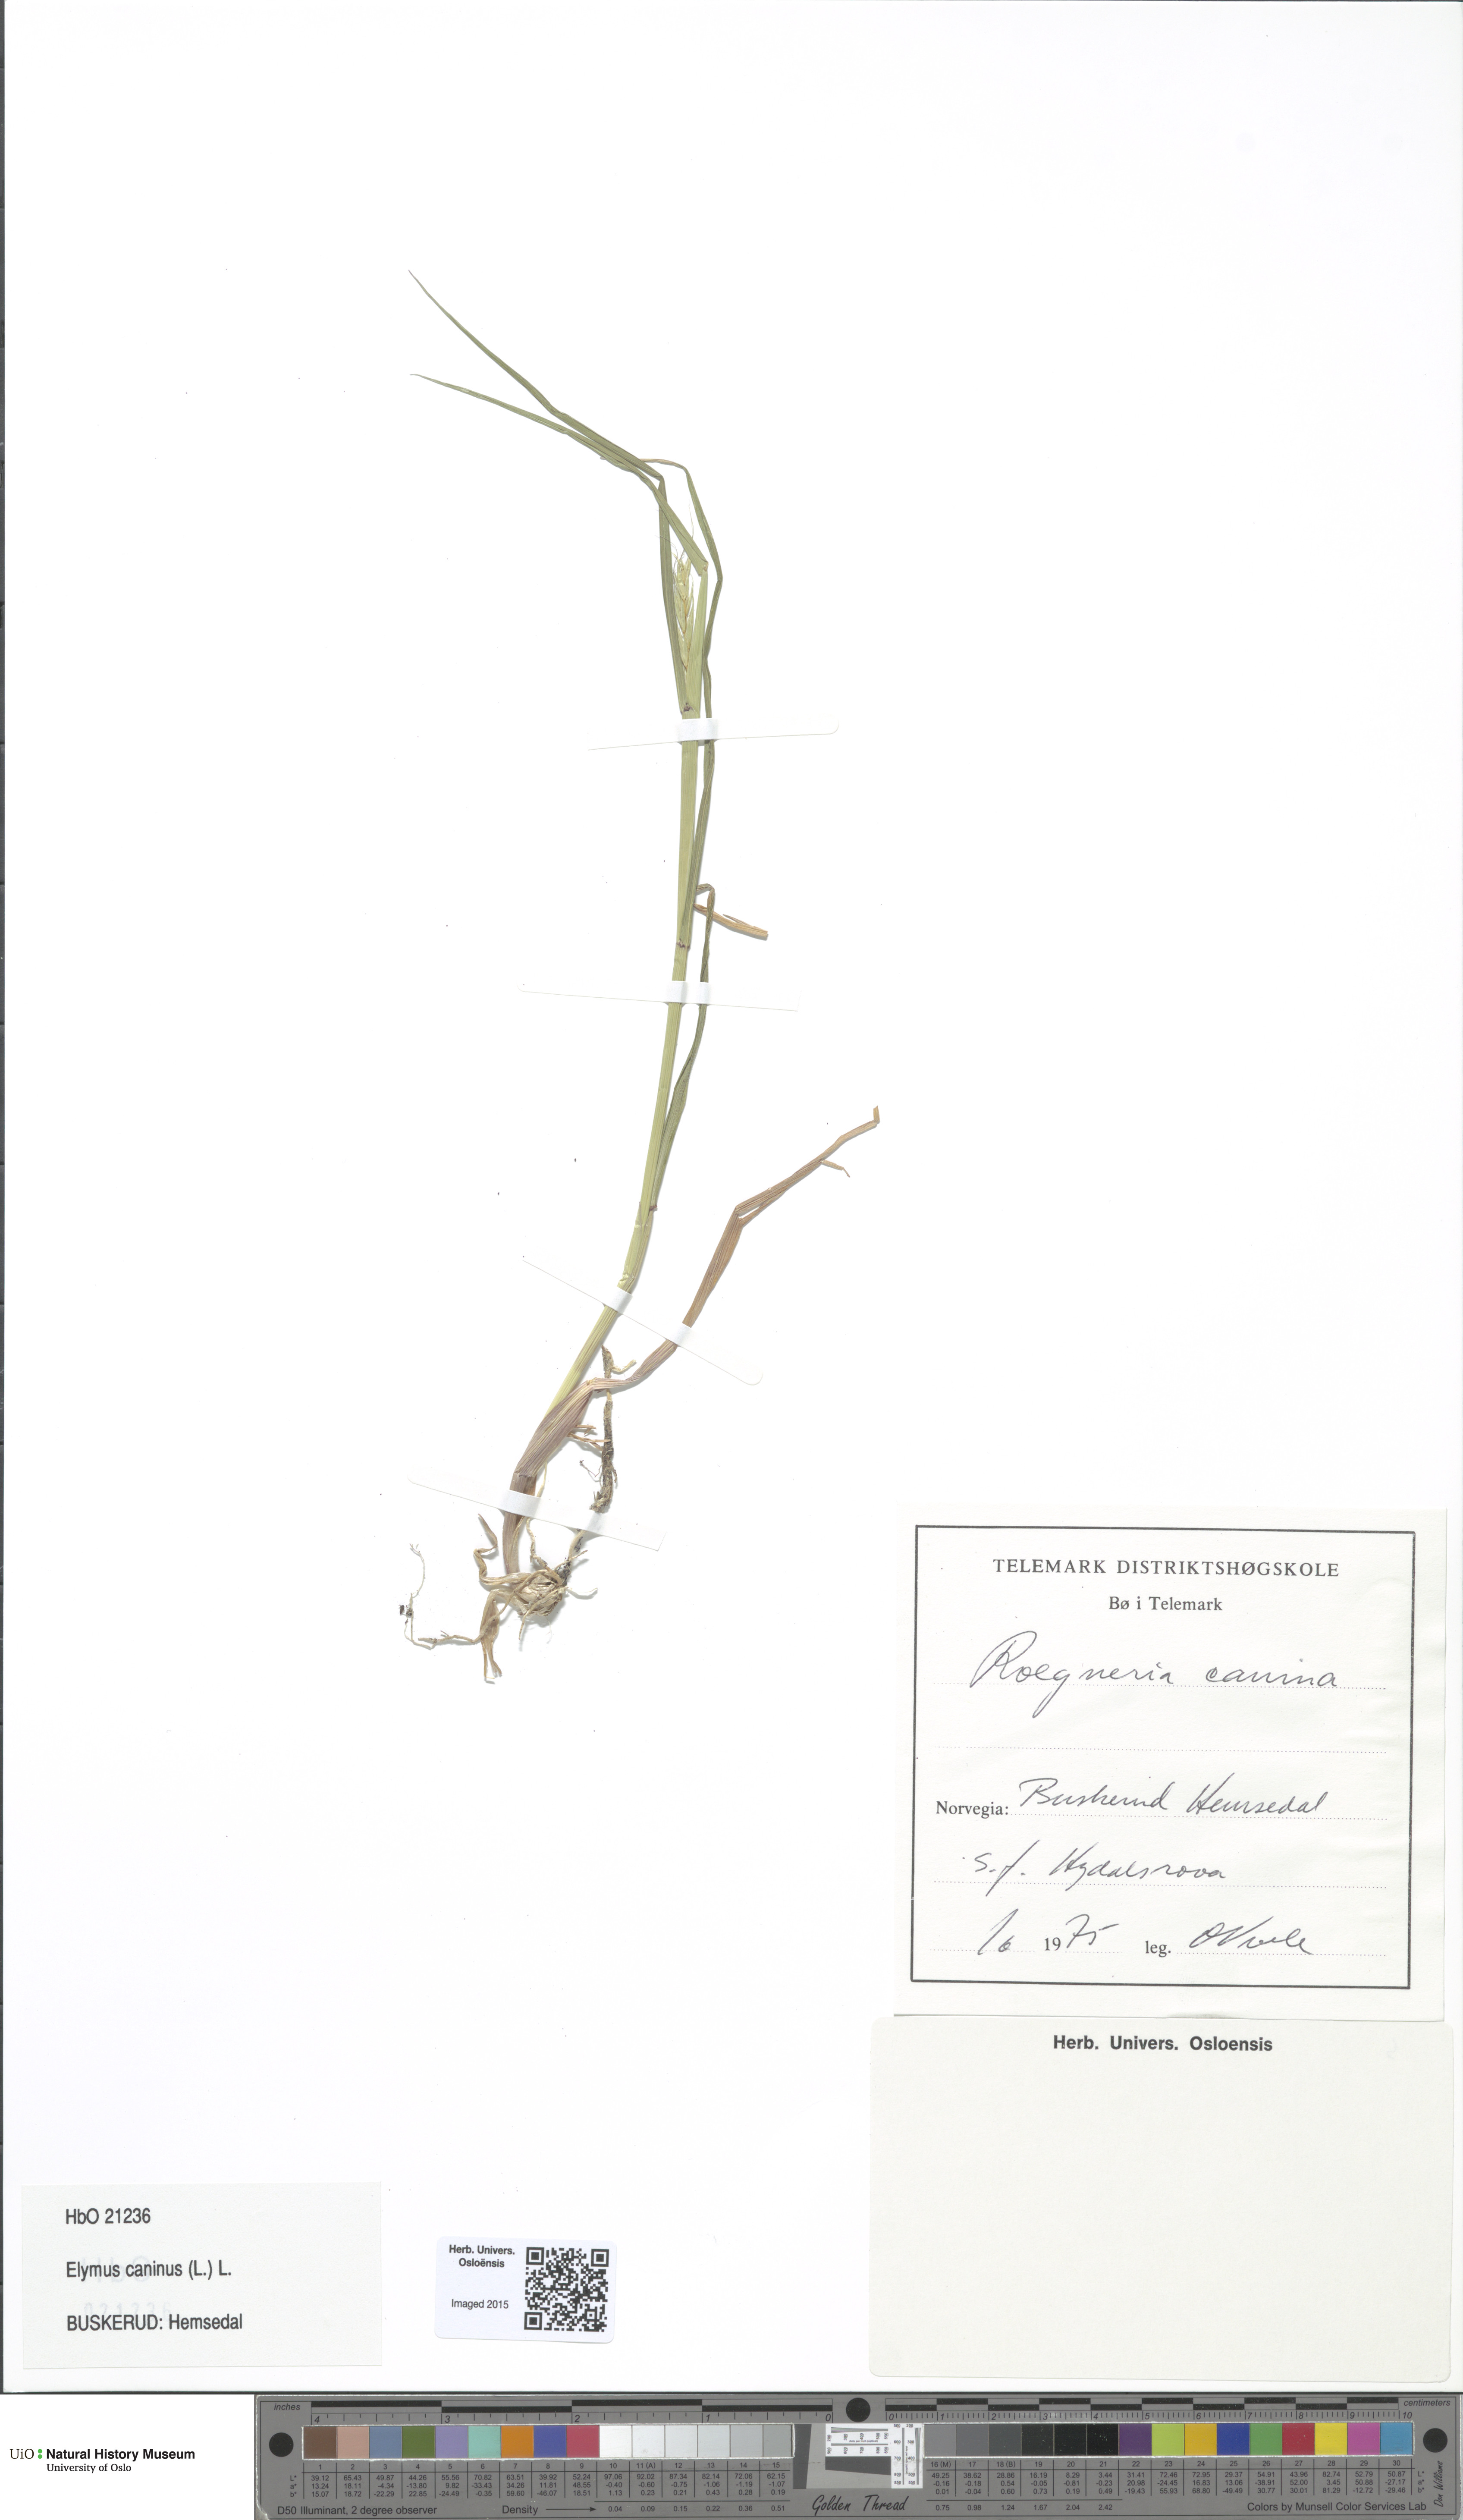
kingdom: Plantae
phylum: Tracheophyta
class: Liliopsida
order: Poales
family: Poaceae
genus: Elymus
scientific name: Elymus caninus
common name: Bearded couch
